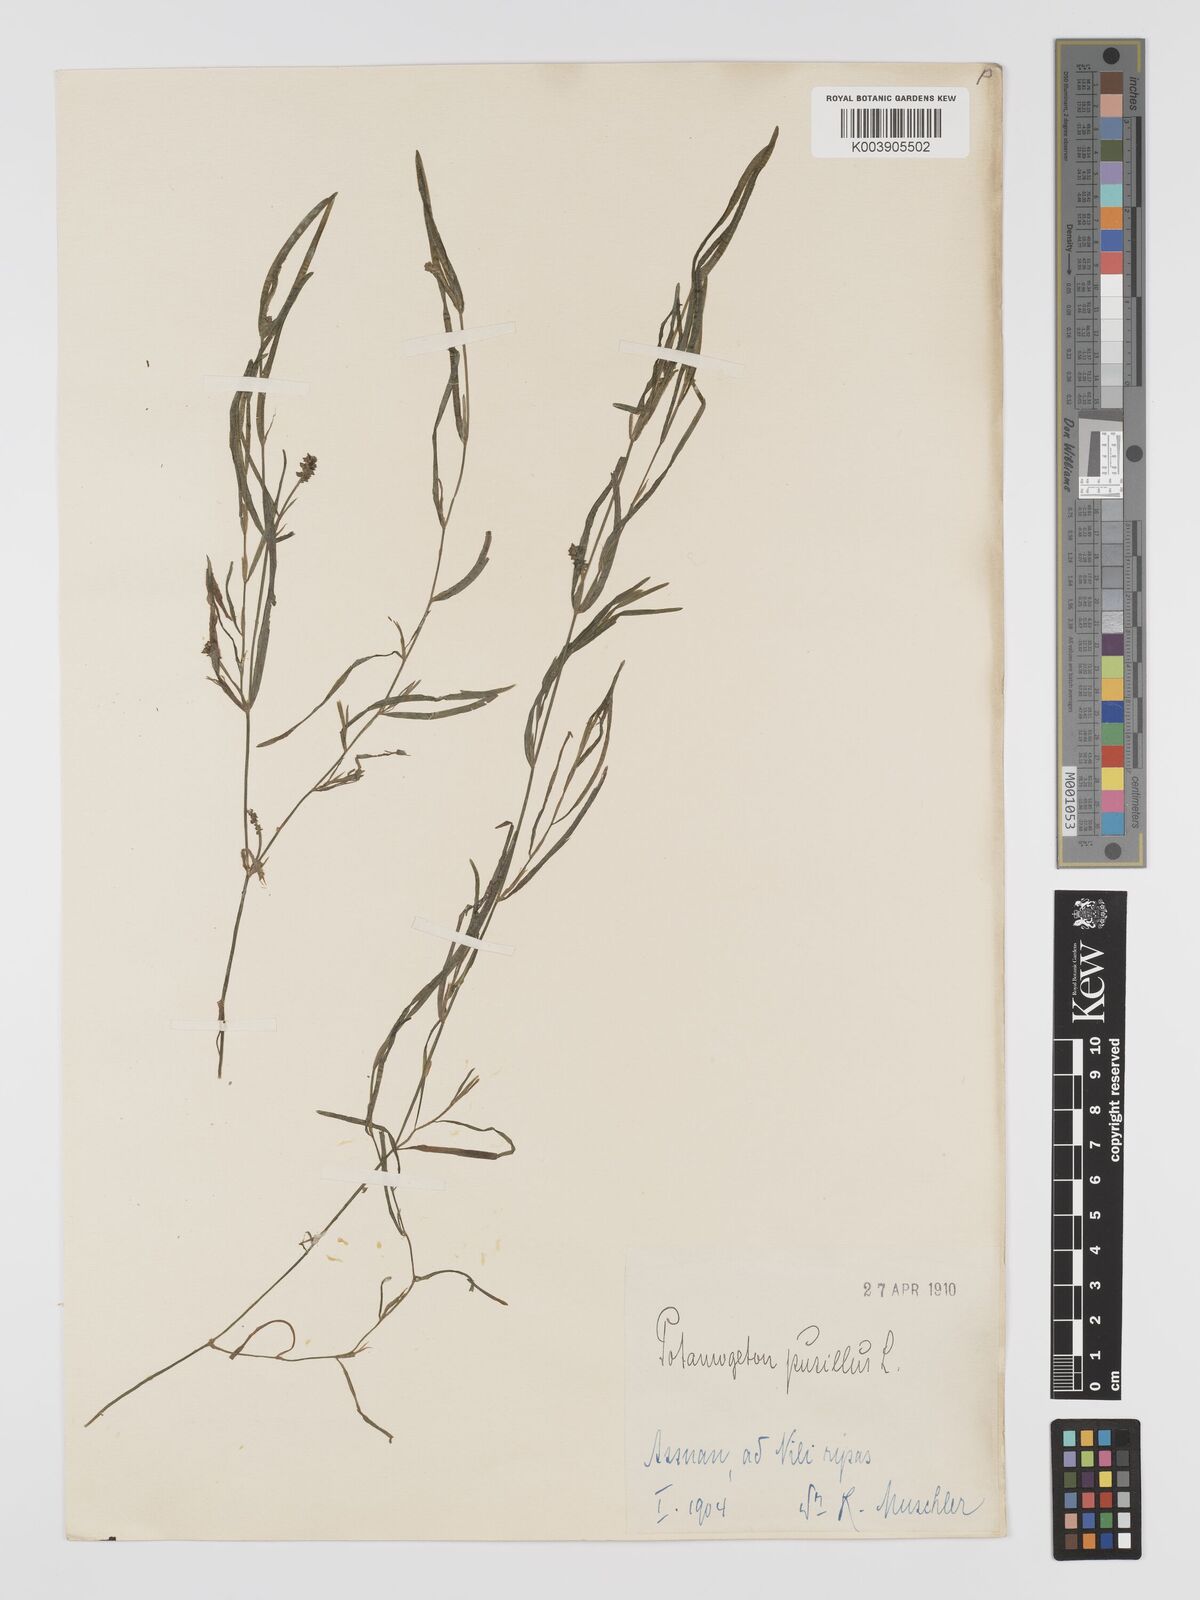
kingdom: Plantae
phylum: Tracheophyta
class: Liliopsida
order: Alismatales
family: Potamogetonaceae
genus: Potamogeton
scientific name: Potamogeton pusillus
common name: Lesser pondweed
